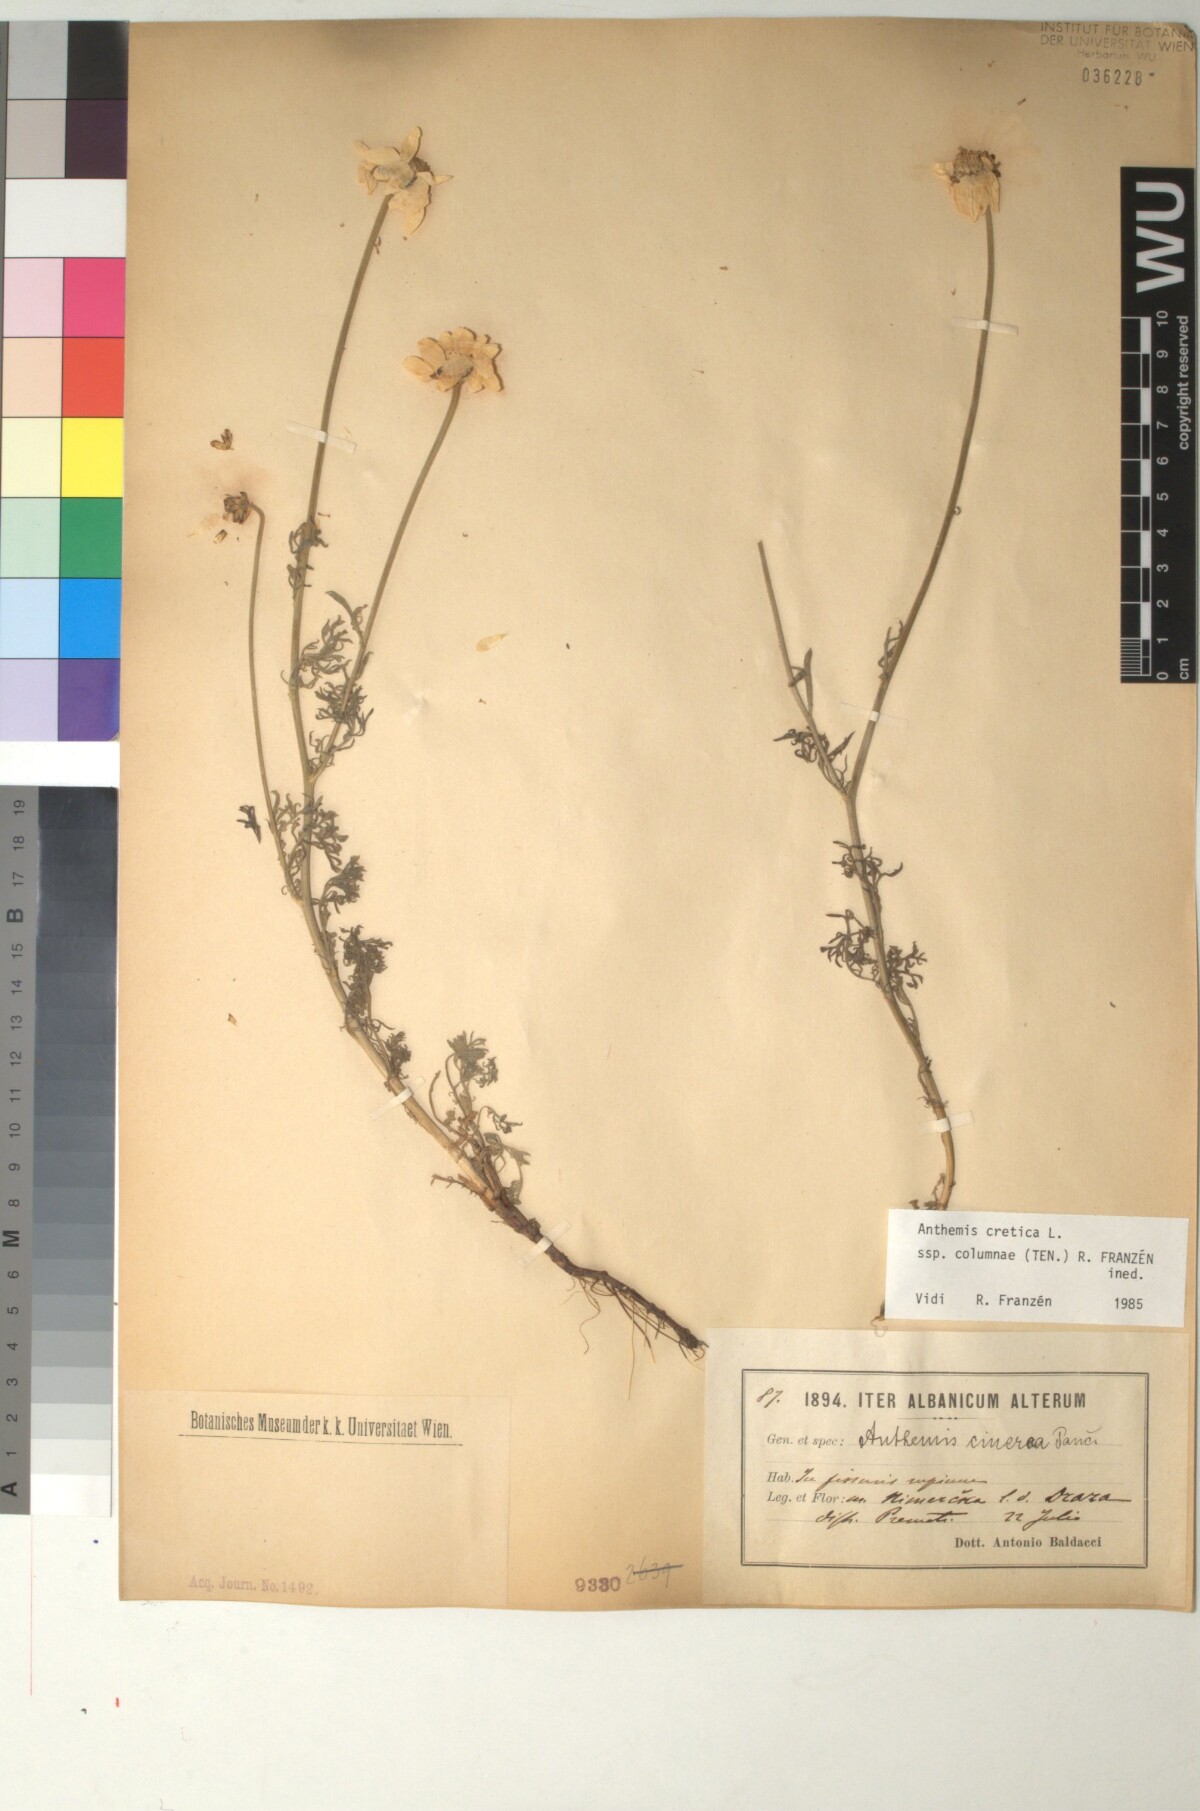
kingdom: Plantae
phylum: Tracheophyta
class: Magnoliopsida
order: Asterales
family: Asteraceae
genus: Anthemis
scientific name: Anthemis cretica
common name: Mountain dog-daisy
